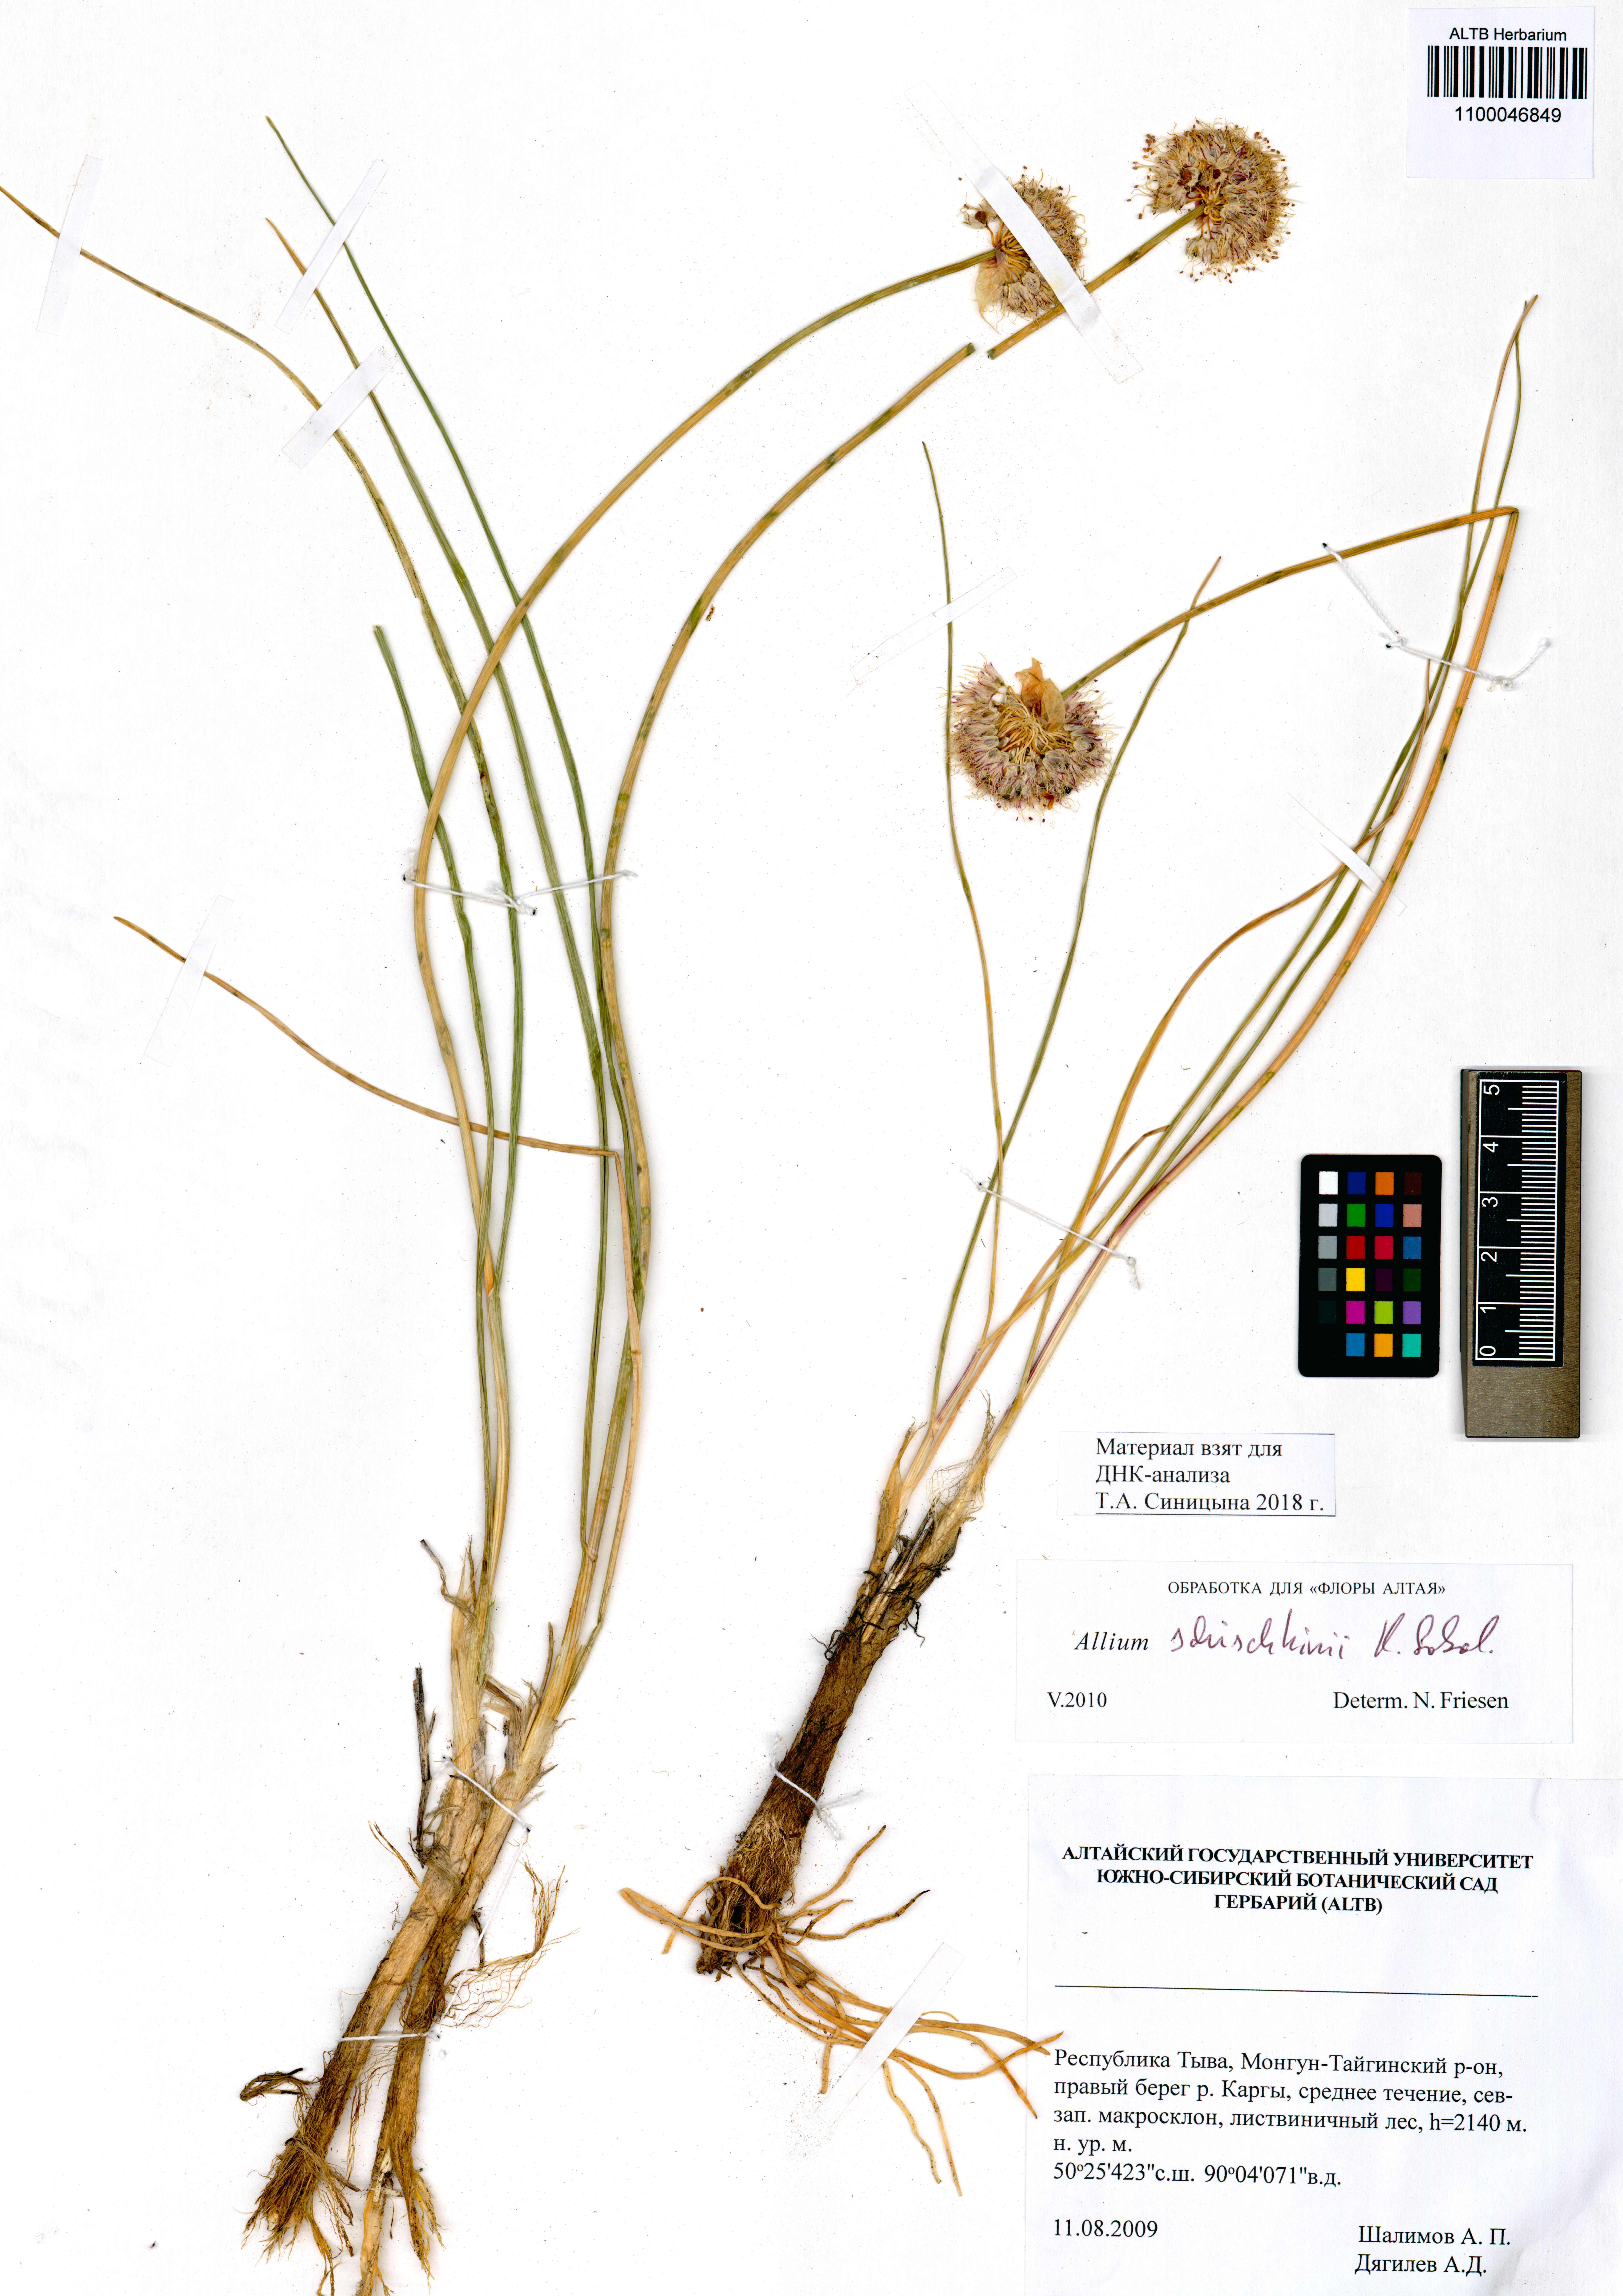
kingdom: Plantae
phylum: Tracheophyta
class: Liliopsida
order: Asparagales
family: Amaryllidaceae
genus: Allium
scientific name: Allium schischkinii
